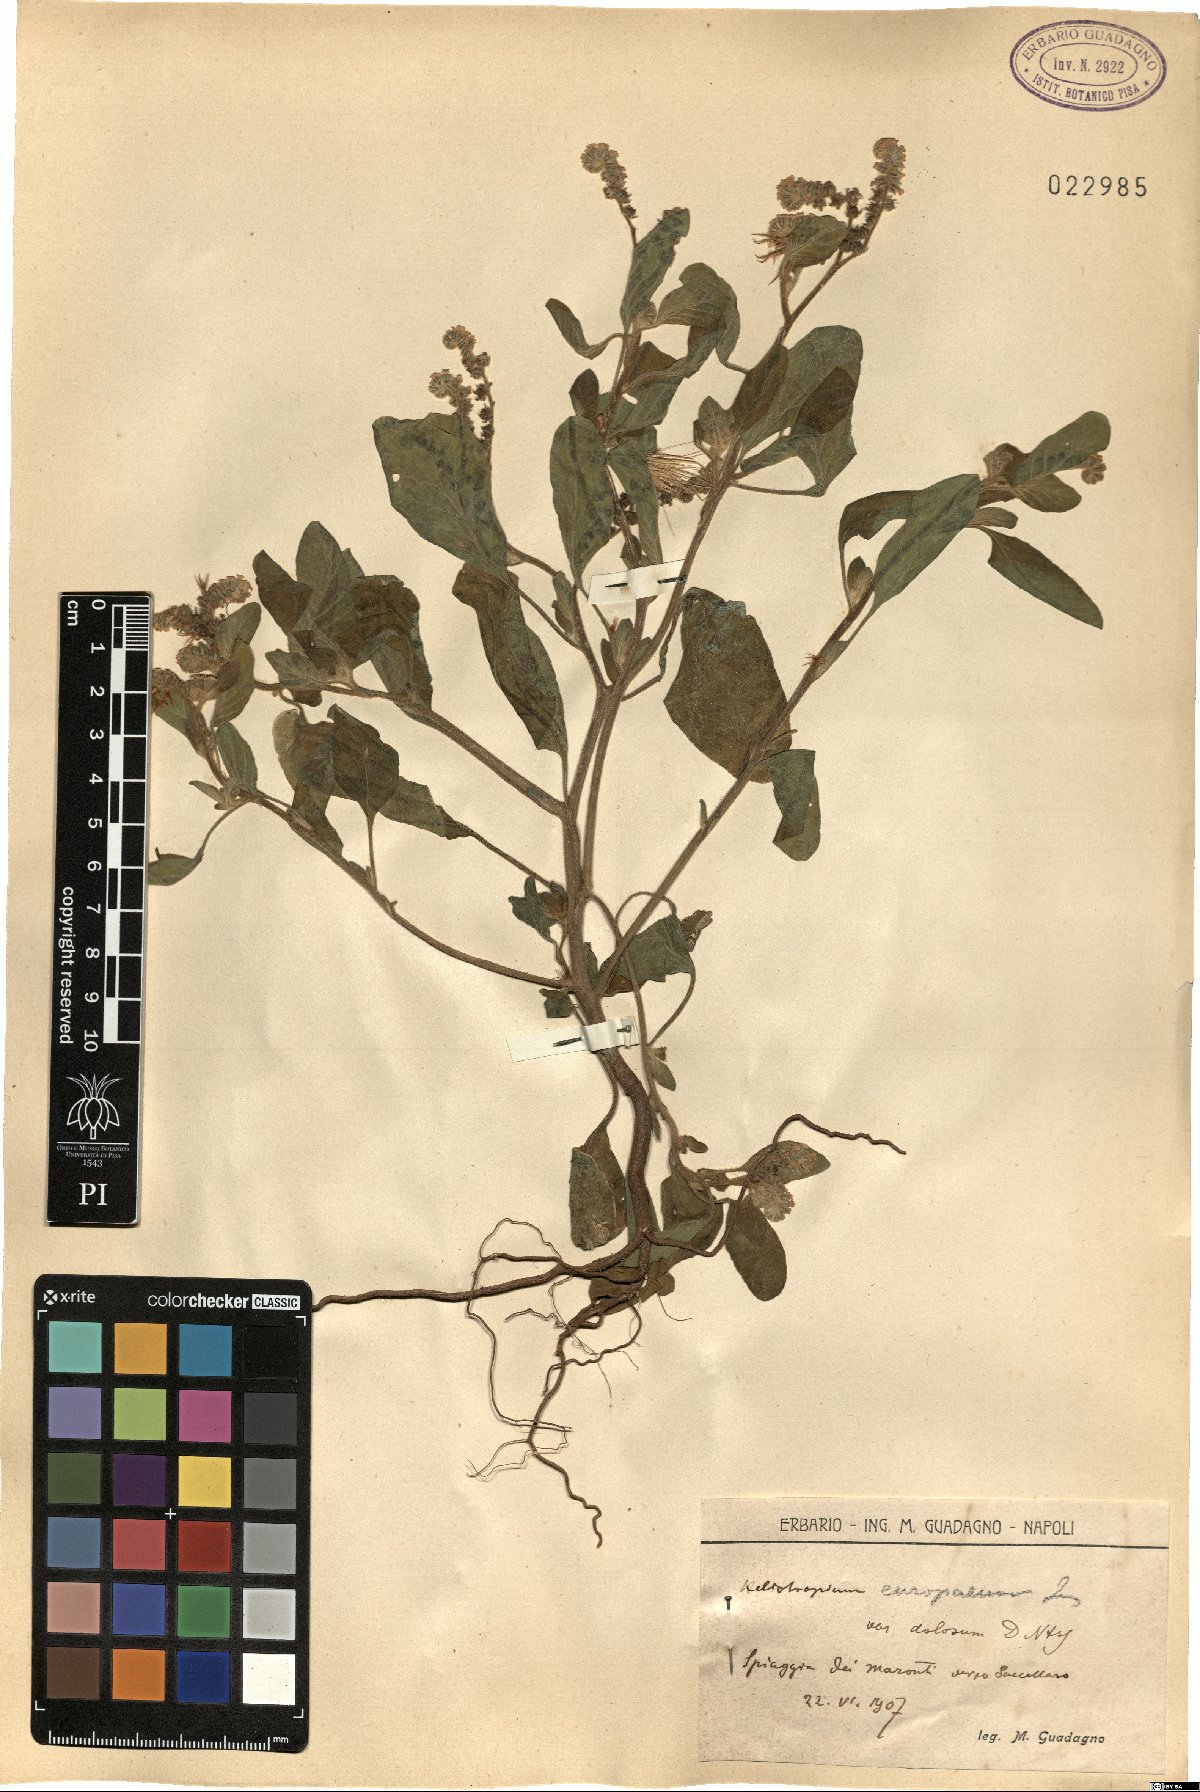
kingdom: Plantae
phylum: Tracheophyta
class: Magnoliopsida
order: Boraginales
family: Heliotropiaceae
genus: Heliotropium
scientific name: Heliotropium curassavicum
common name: Seaside heliotrope
